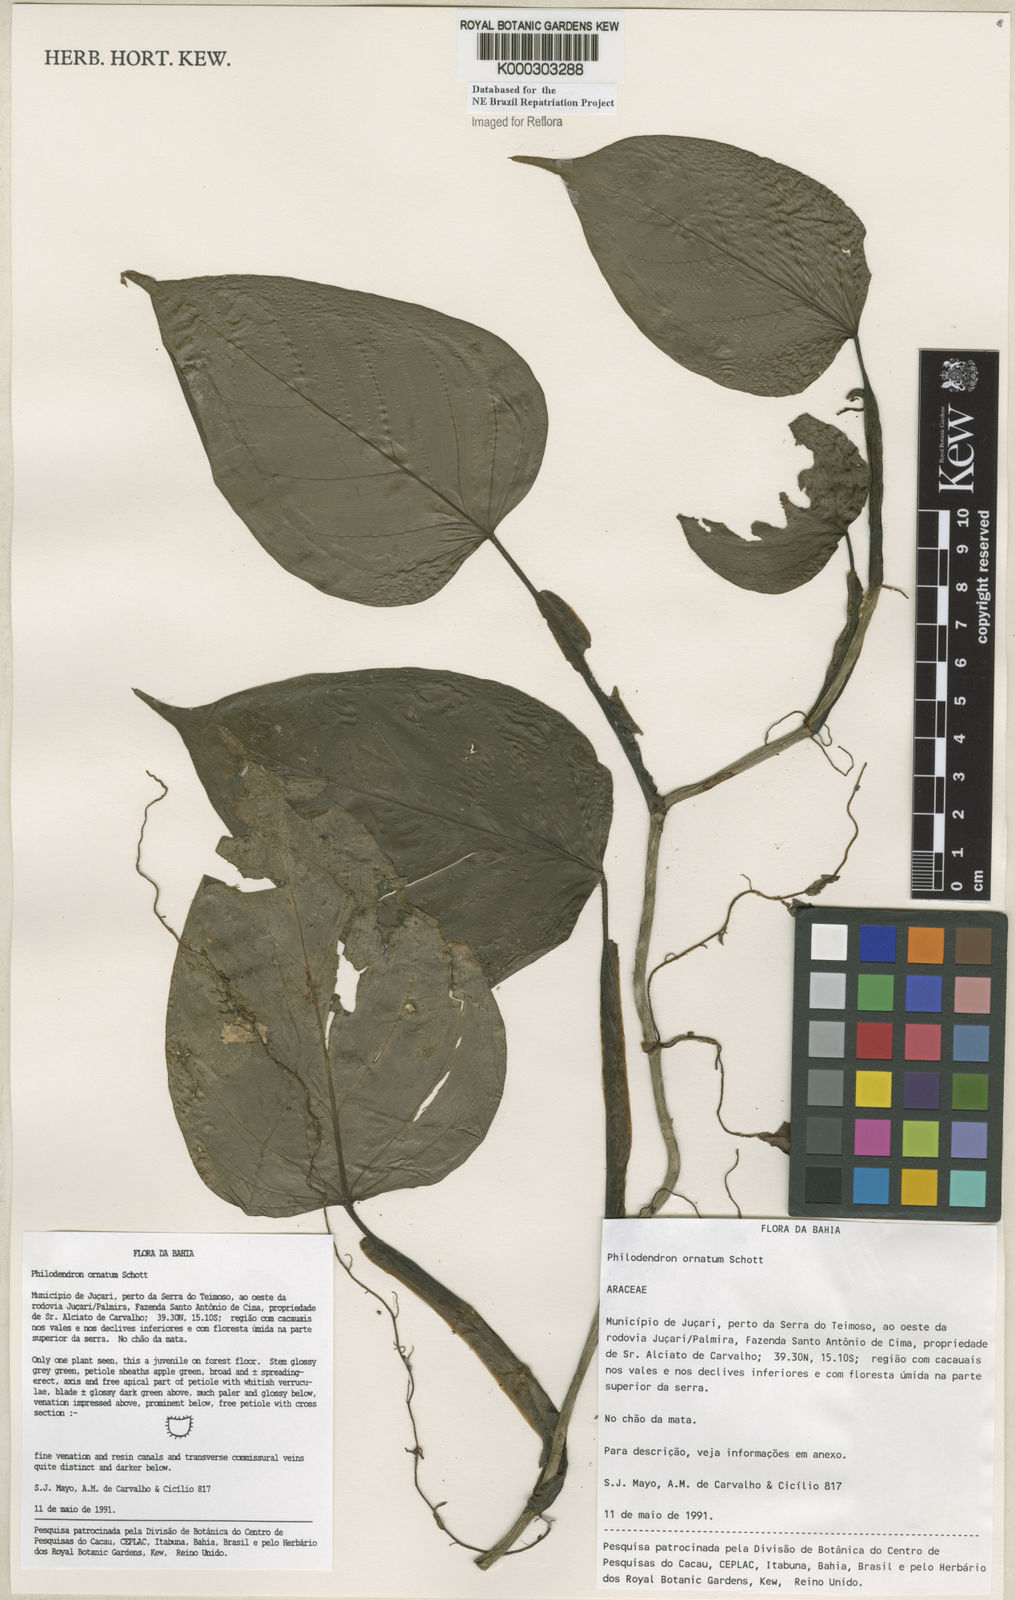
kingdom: Plantae
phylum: Tracheophyta
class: Liliopsida
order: Alismatales
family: Araceae
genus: Philodendron
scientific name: Philodendron ornatum
